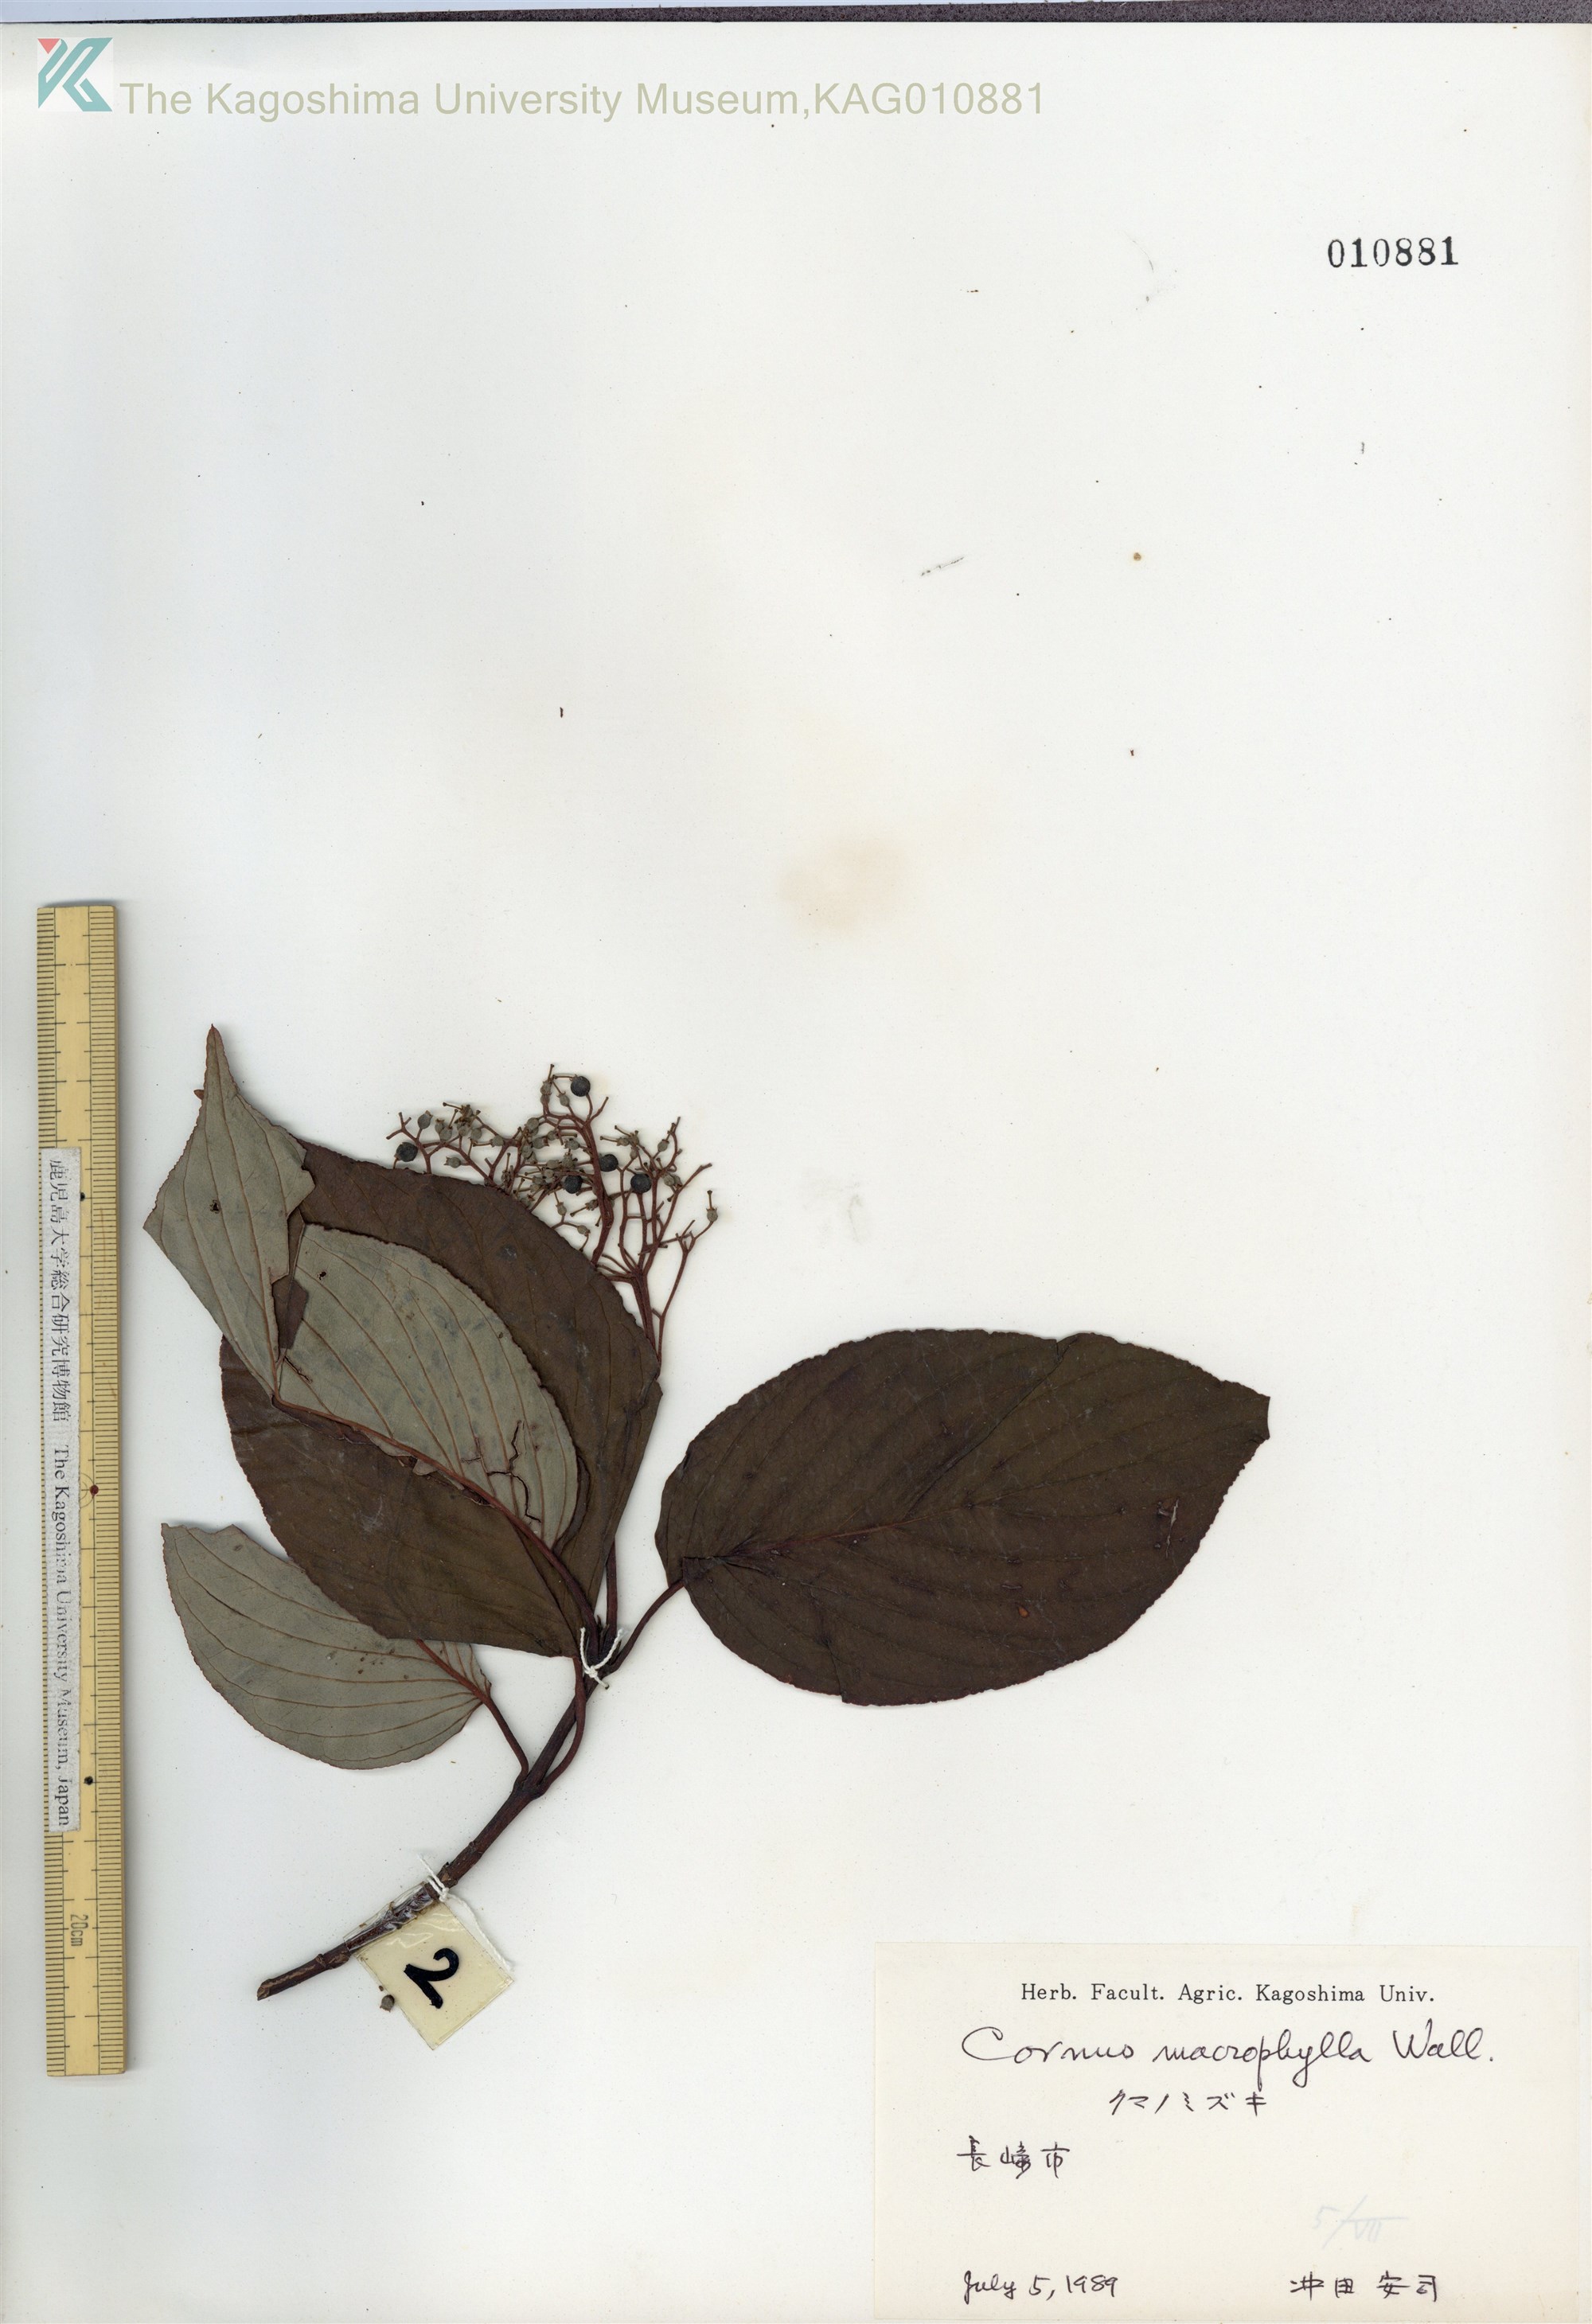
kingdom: Plantae
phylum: Tracheophyta
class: Magnoliopsida
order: Cornales
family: Cornaceae
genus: Cornus
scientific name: Cornus macrophylla
